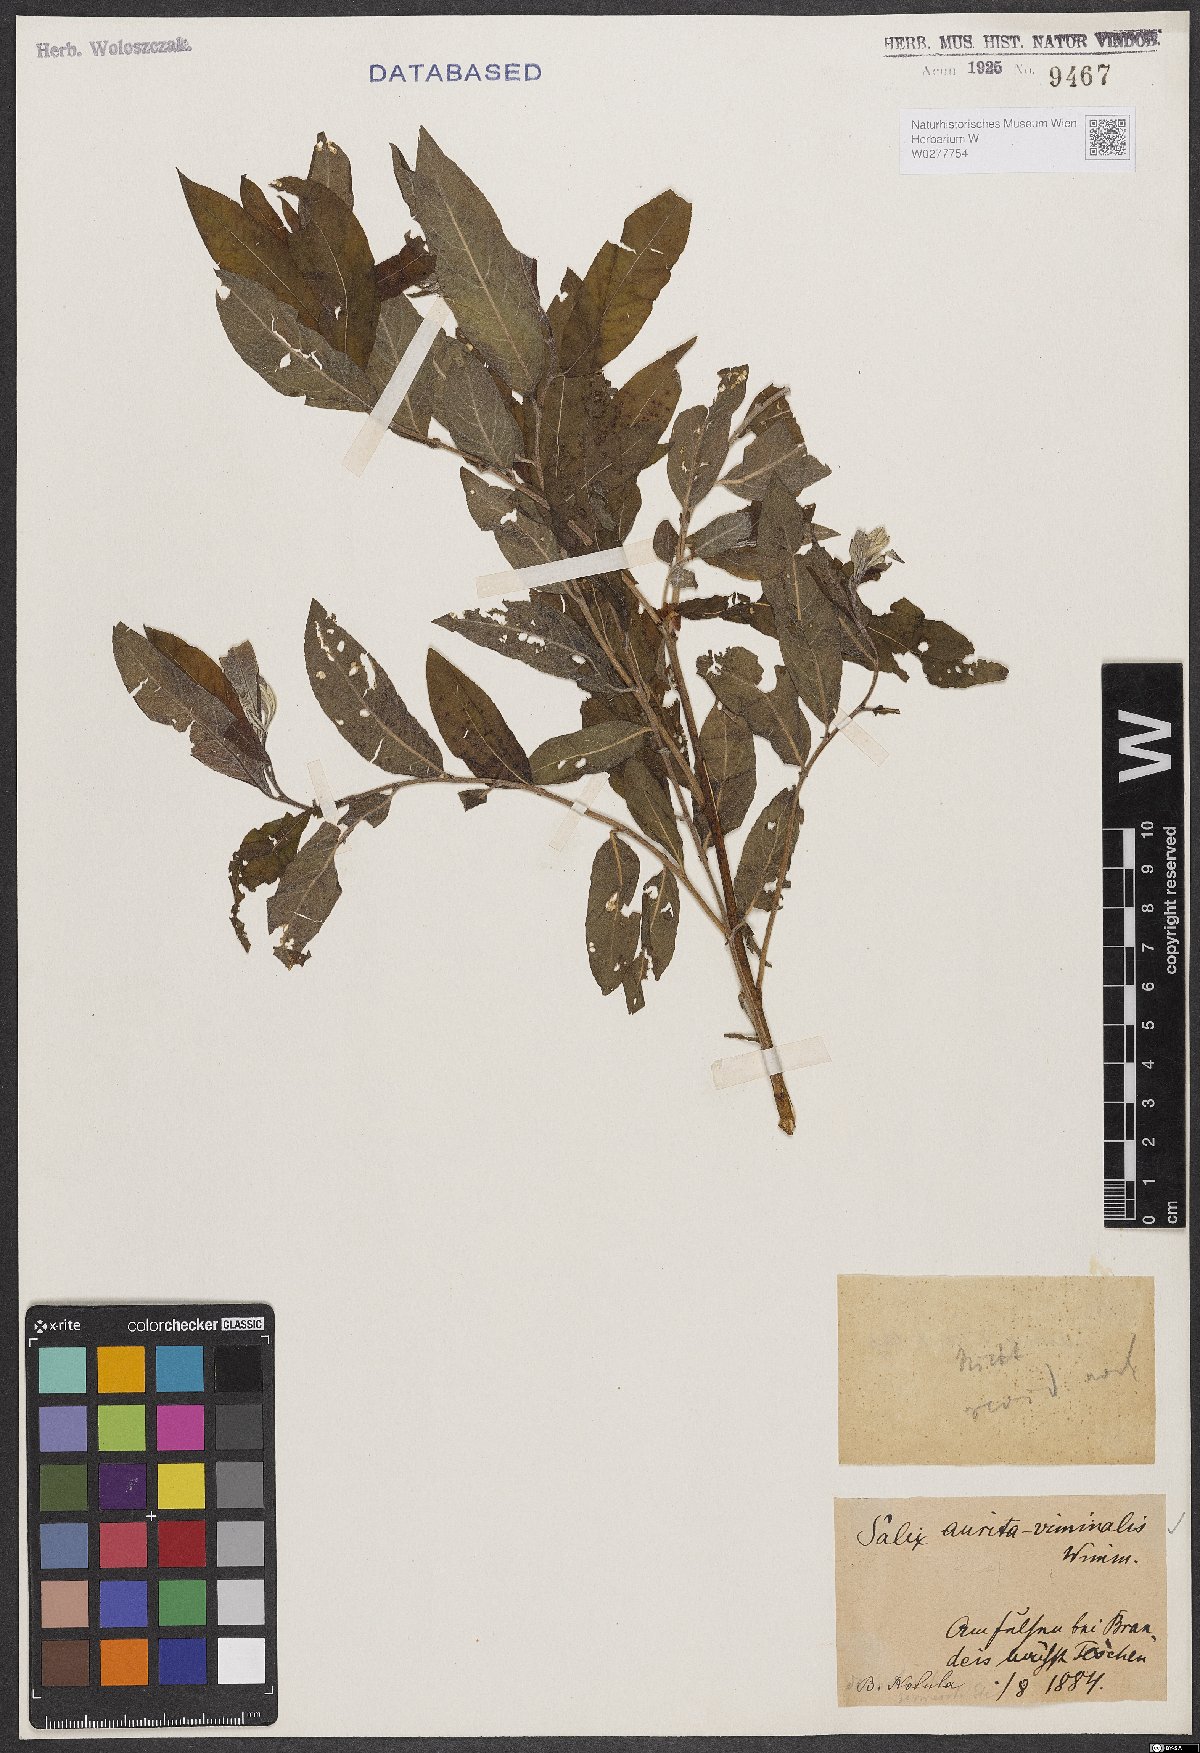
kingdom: Plantae
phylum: Tracheophyta
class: Magnoliopsida
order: Malpighiales
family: Salicaceae
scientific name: Salicaceae
